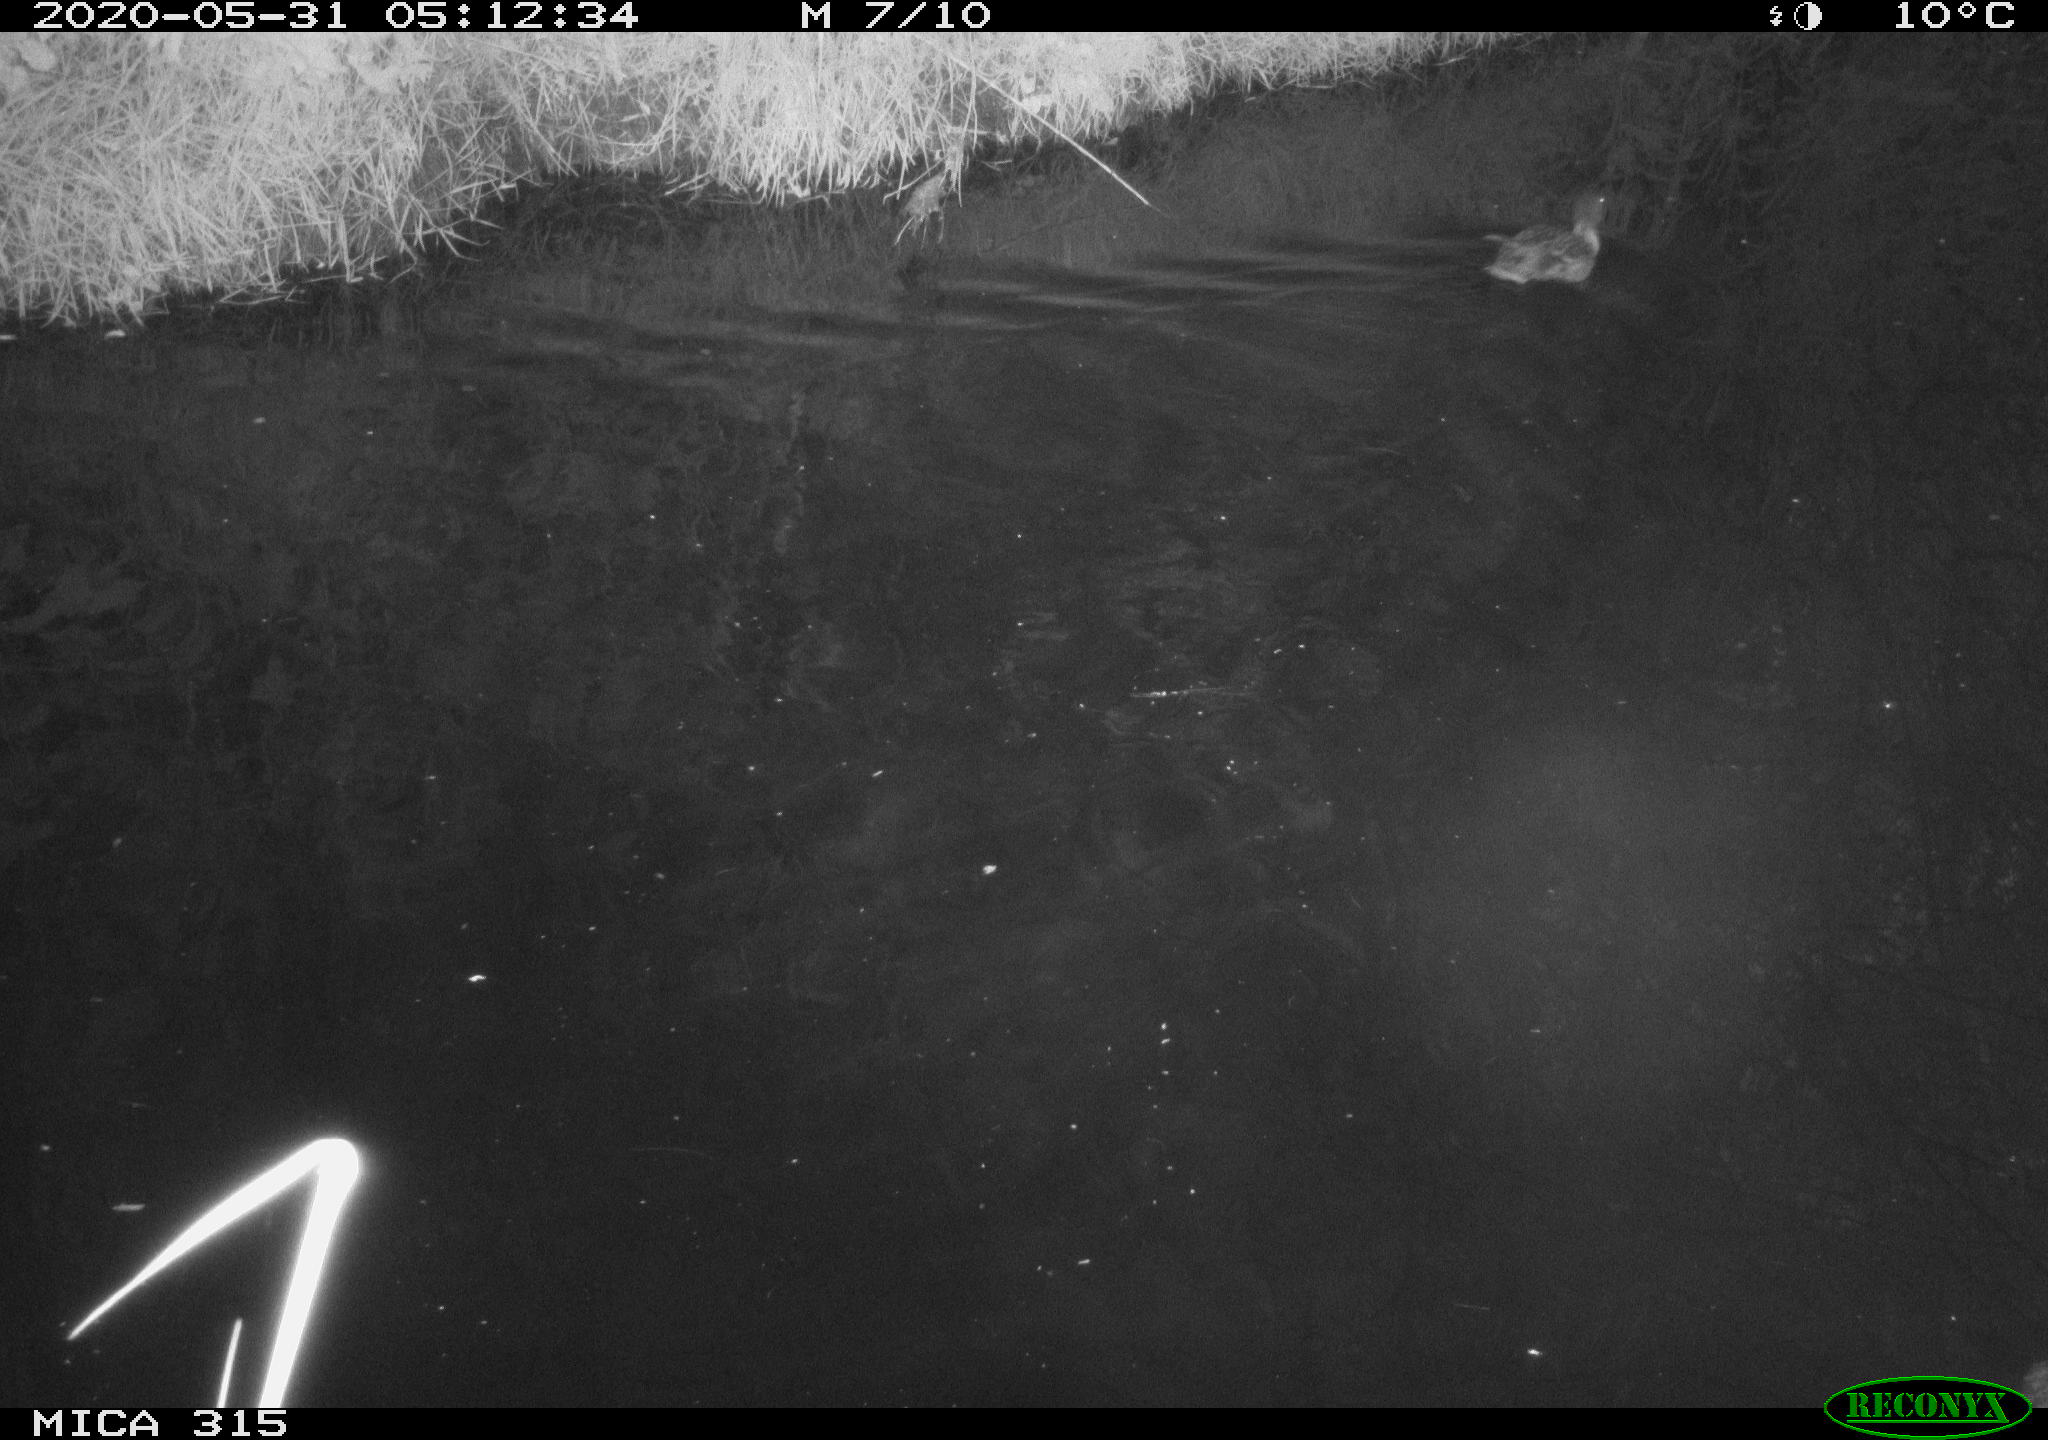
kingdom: Animalia
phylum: Chordata
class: Aves
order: Anseriformes
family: Anatidae
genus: Anas
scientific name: Anas platyrhynchos
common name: Mallard
